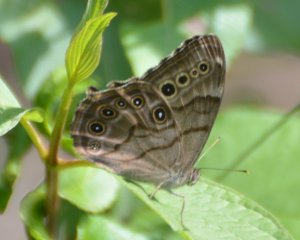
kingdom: Animalia
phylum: Arthropoda
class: Insecta
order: Lepidoptera
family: Nymphalidae
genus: Lethe
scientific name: Lethe anthedon
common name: Northern Pearly-Eye
